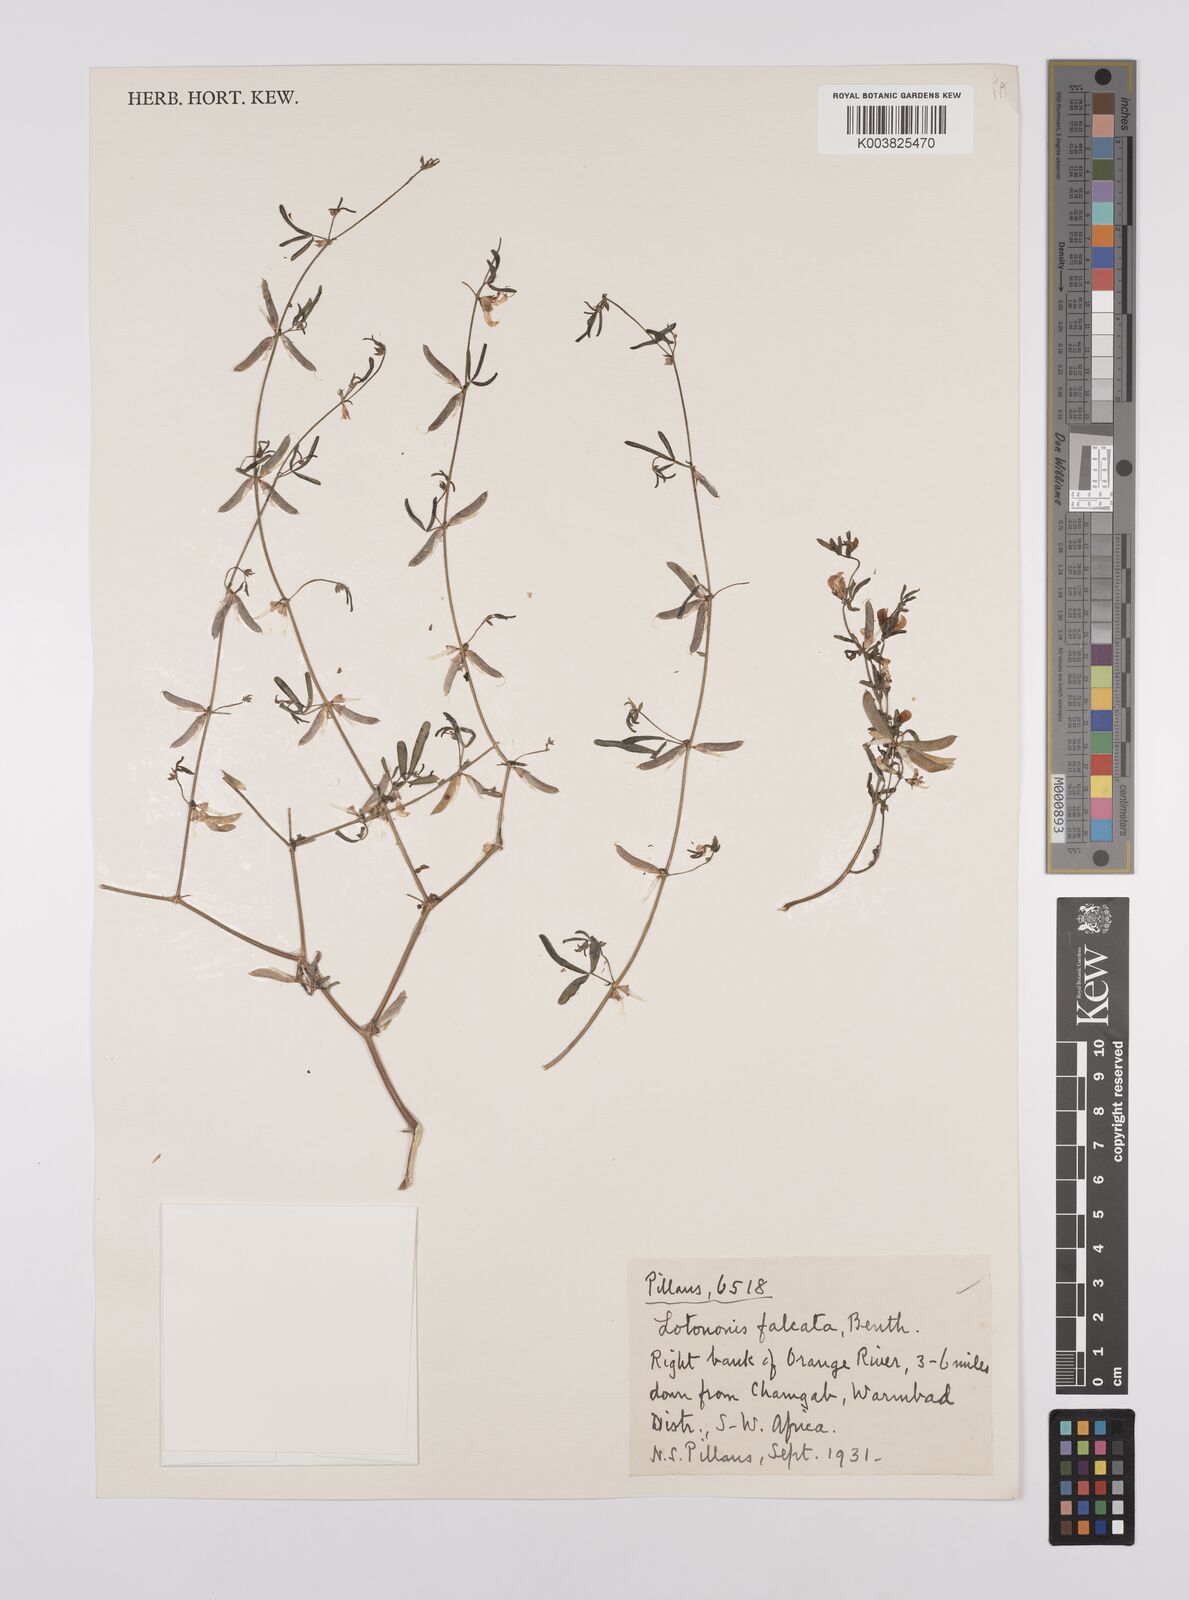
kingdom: Plantae
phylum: Tracheophyta
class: Magnoliopsida
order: Fabales
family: Fabaceae
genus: Lotononis
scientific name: Lotononis falcata
